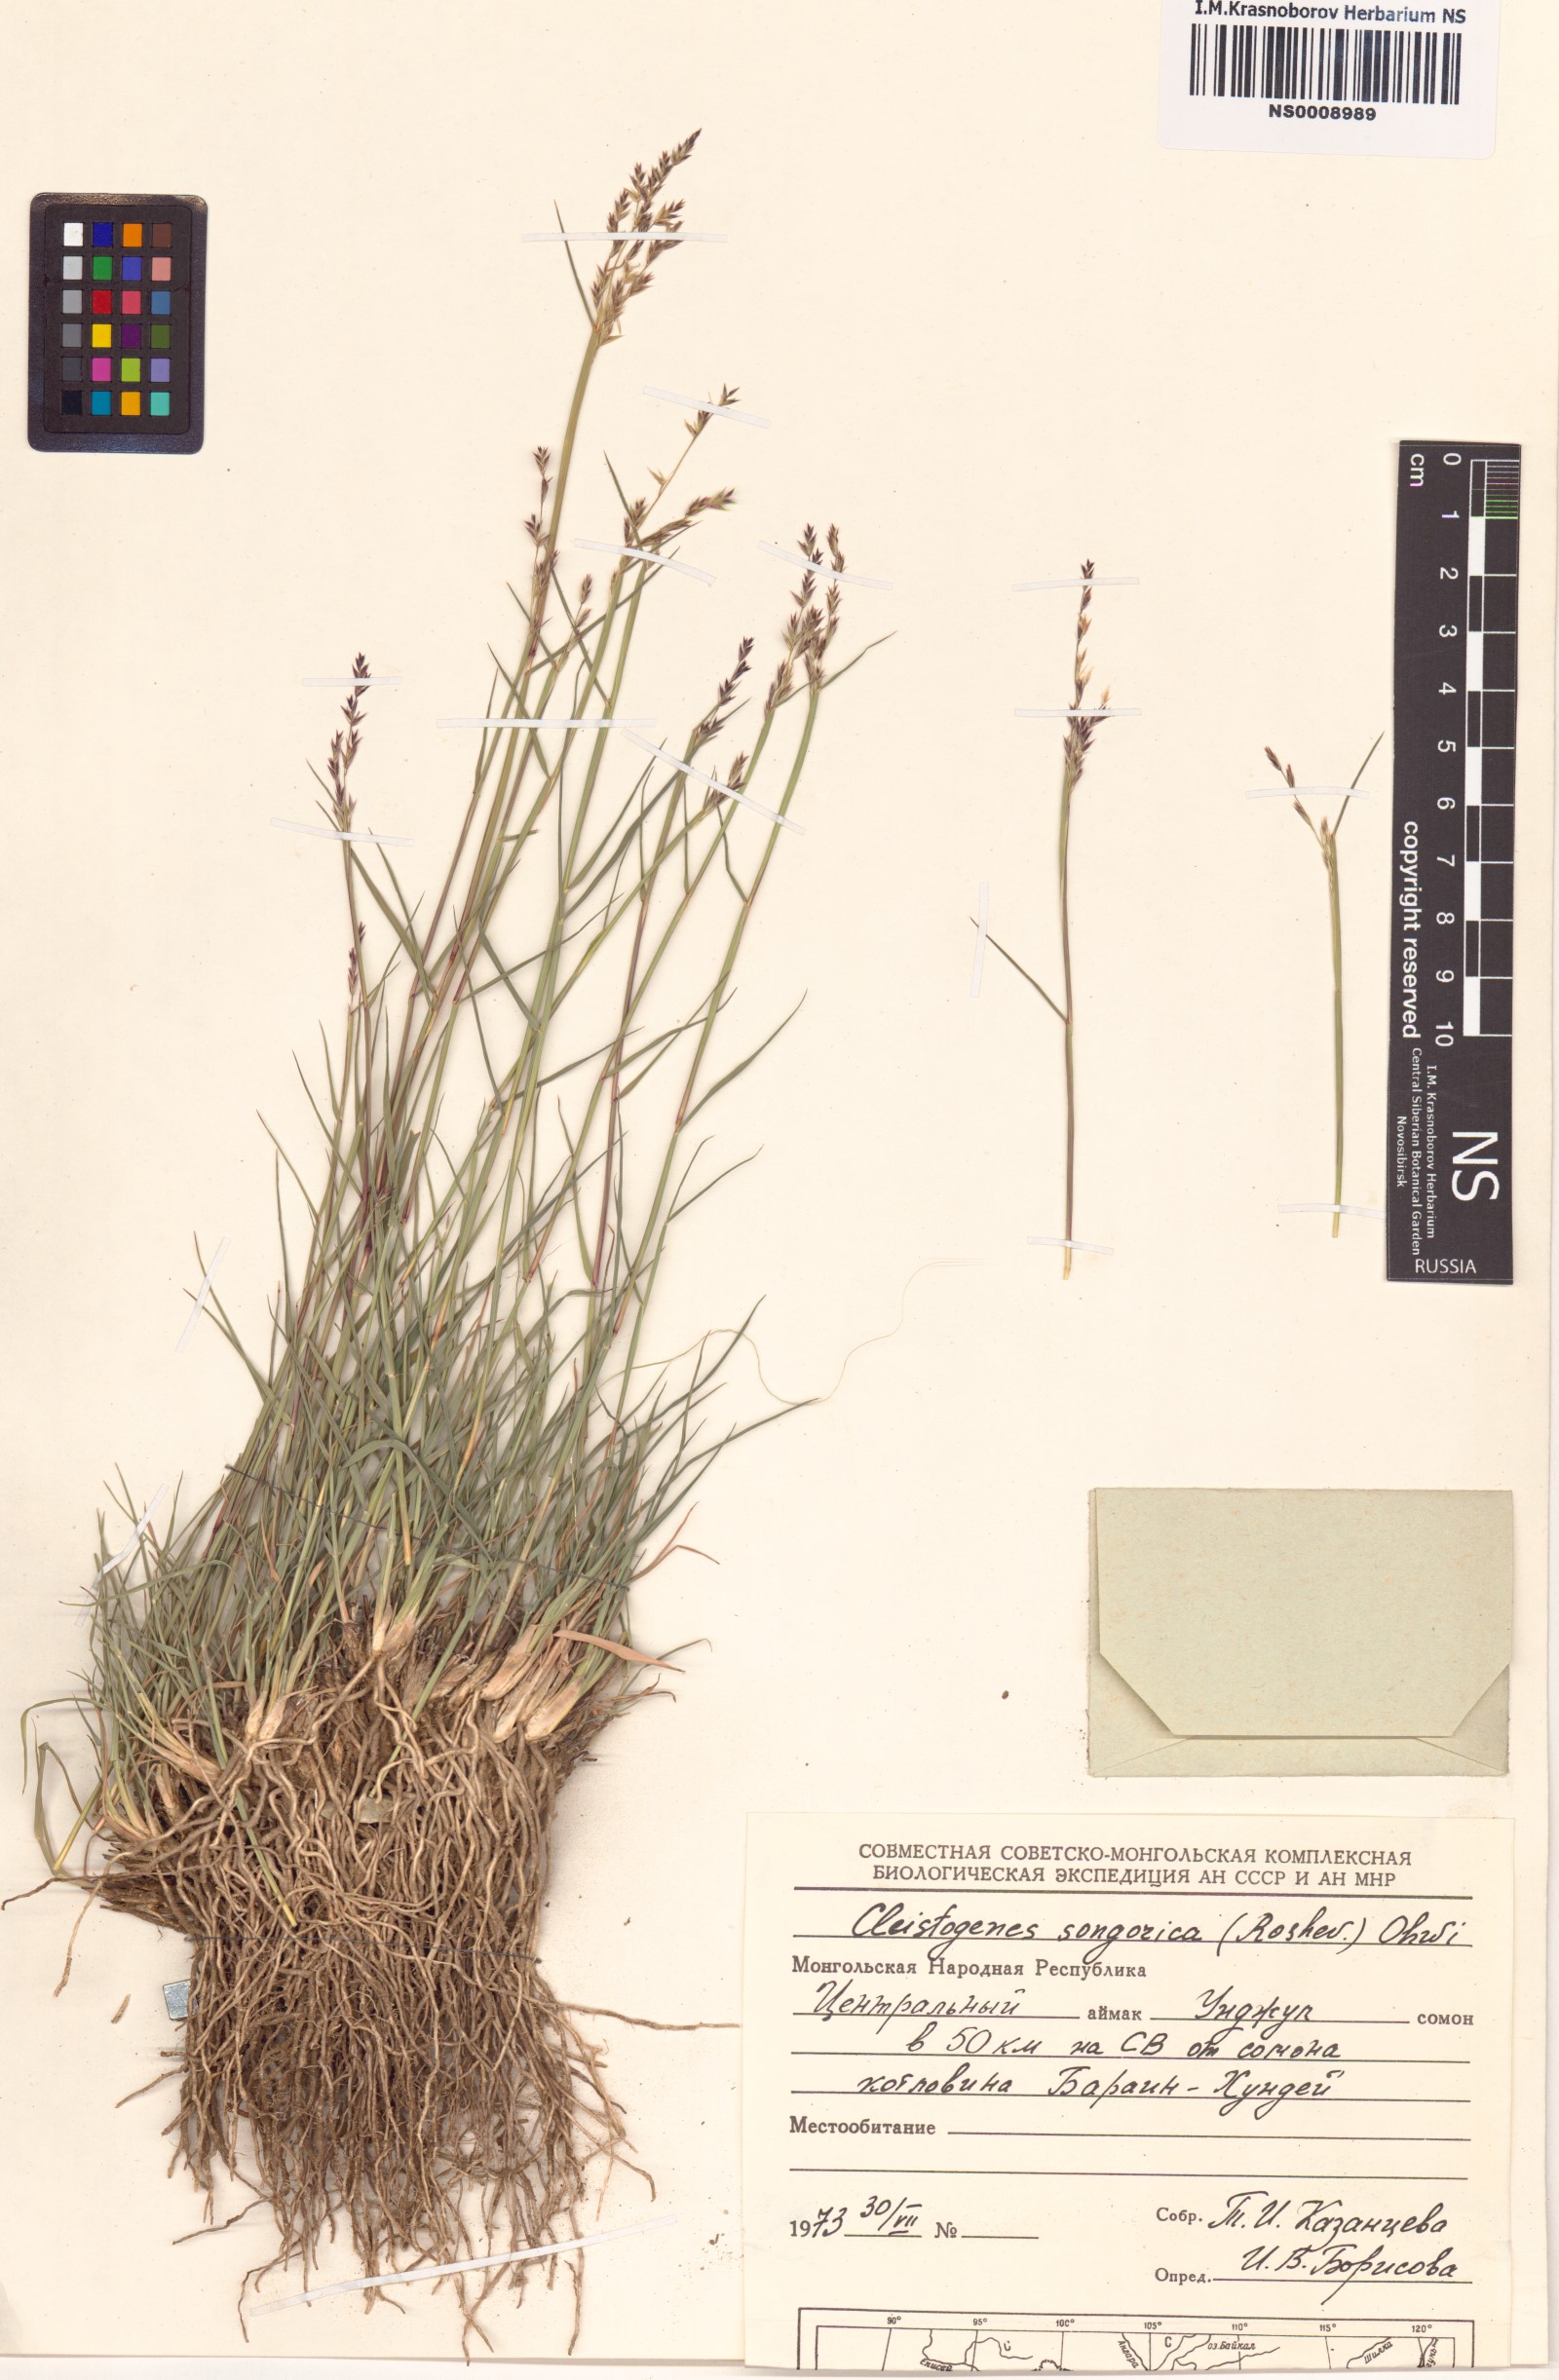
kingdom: Plantae
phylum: Tracheophyta
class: Liliopsida
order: Poales
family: Poaceae
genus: Cleistogenes
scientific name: Cleistogenes songorica
